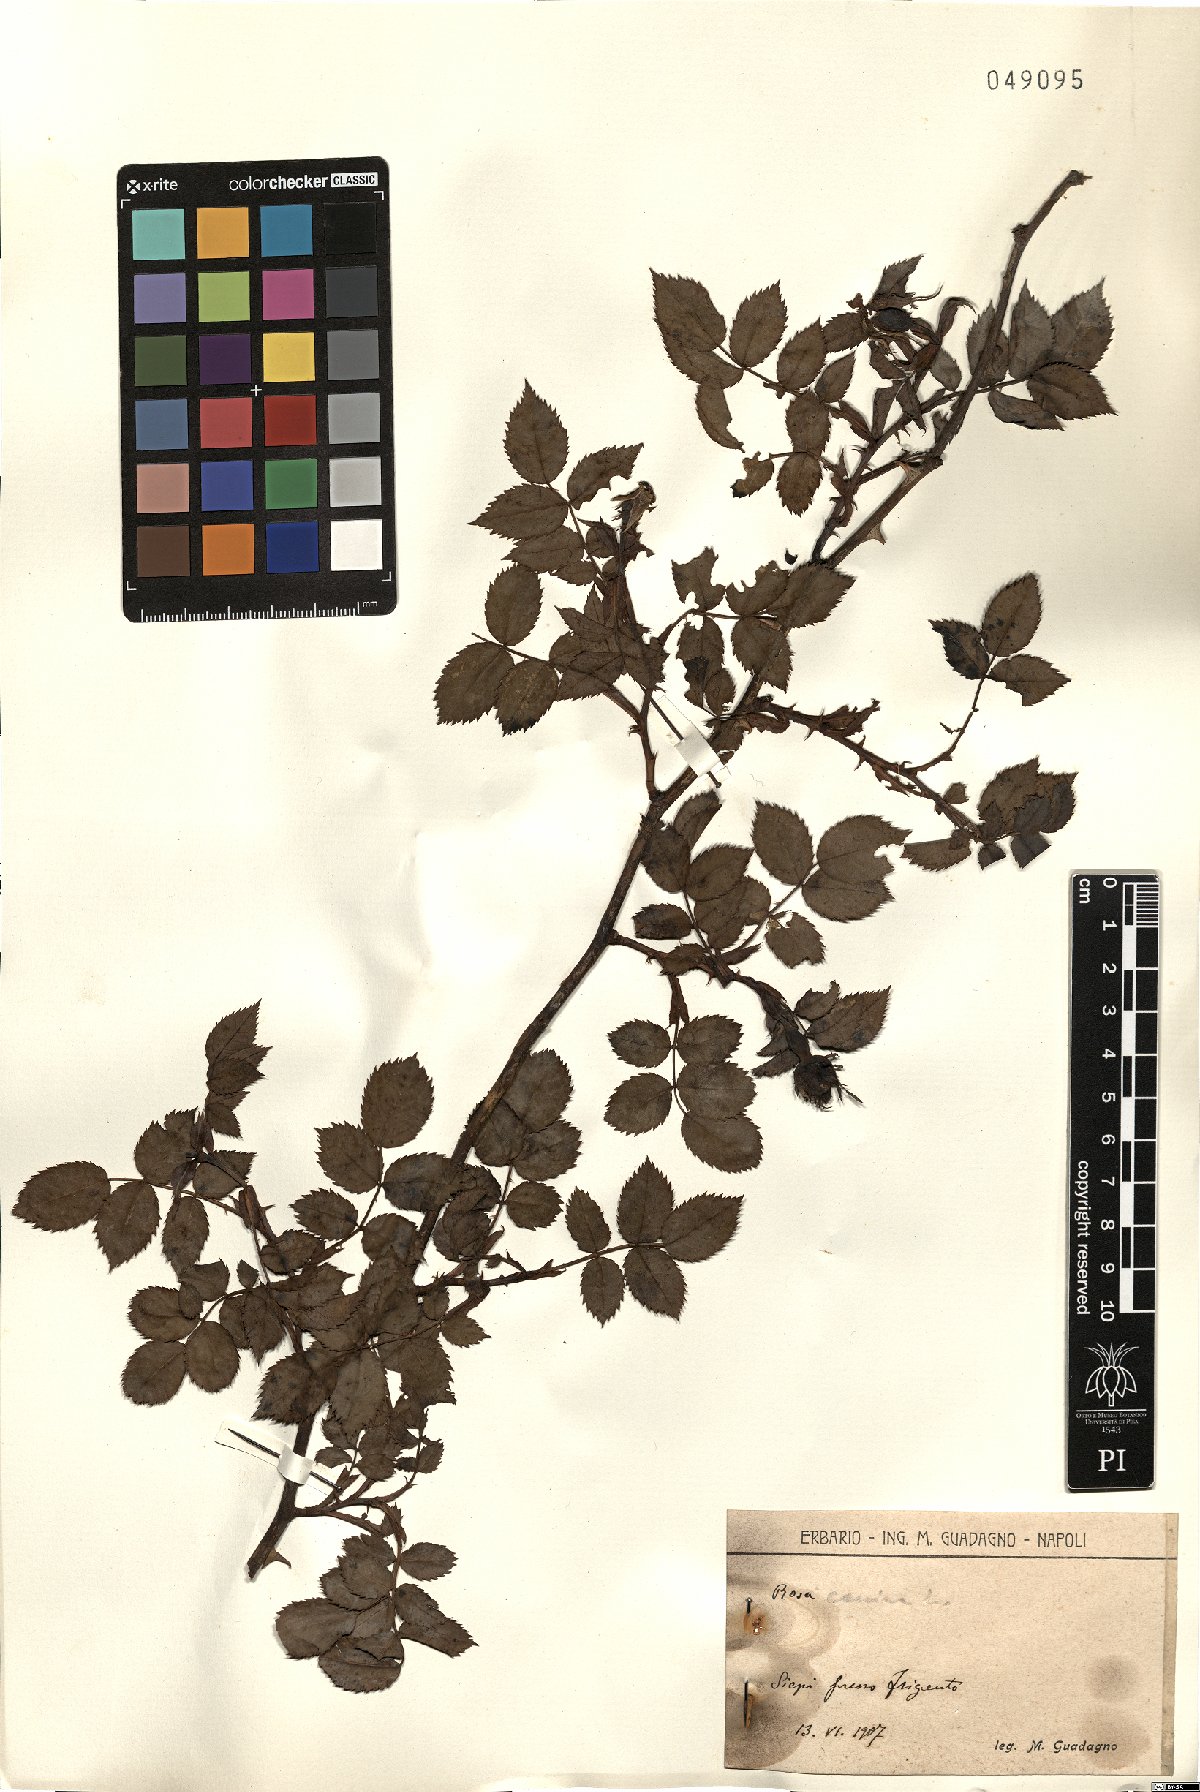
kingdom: Plantae
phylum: Tracheophyta
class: Magnoliopsida
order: Rosales
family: Rosaceae
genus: Rosa
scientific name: Rosa canina
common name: Dog rose
